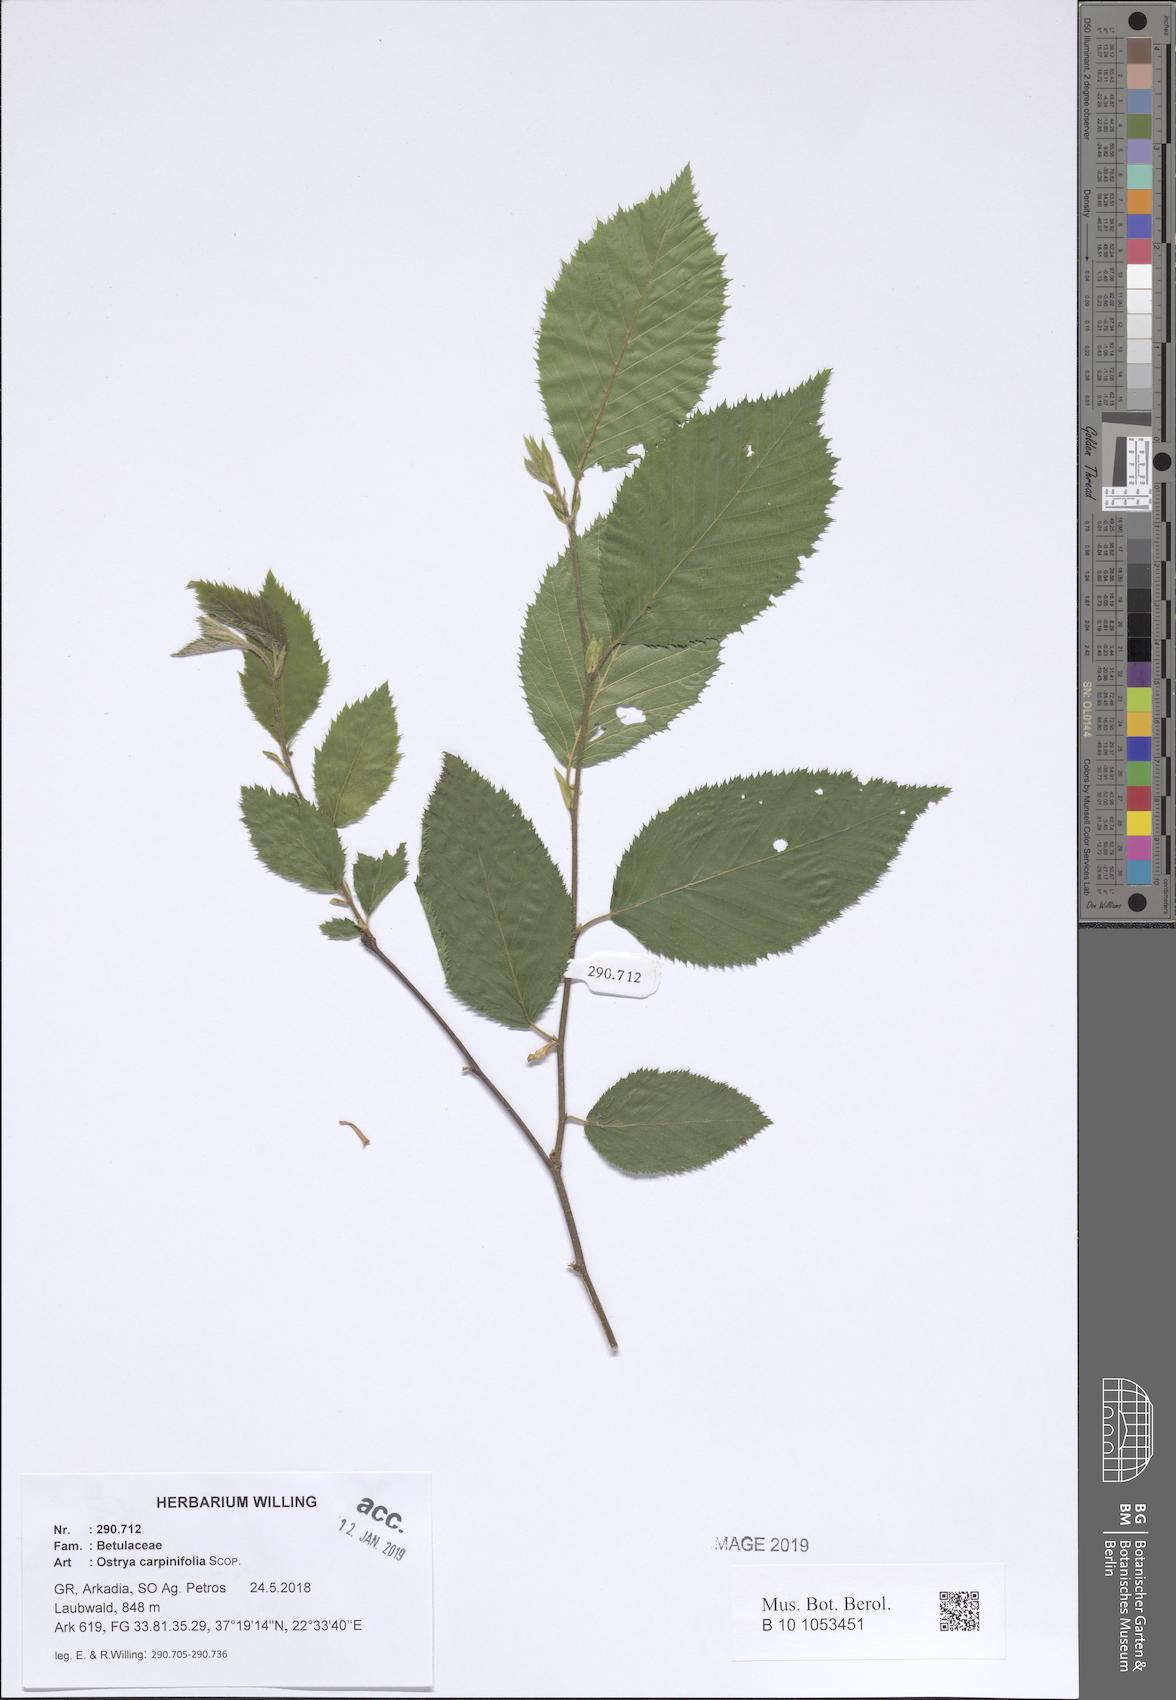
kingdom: Plantae
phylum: Tracheophyta
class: Magnoliopsida
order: Fagales
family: Betulaceae
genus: Ostrya
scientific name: Ostrya carpinifolia
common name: European hop-hornbeam
